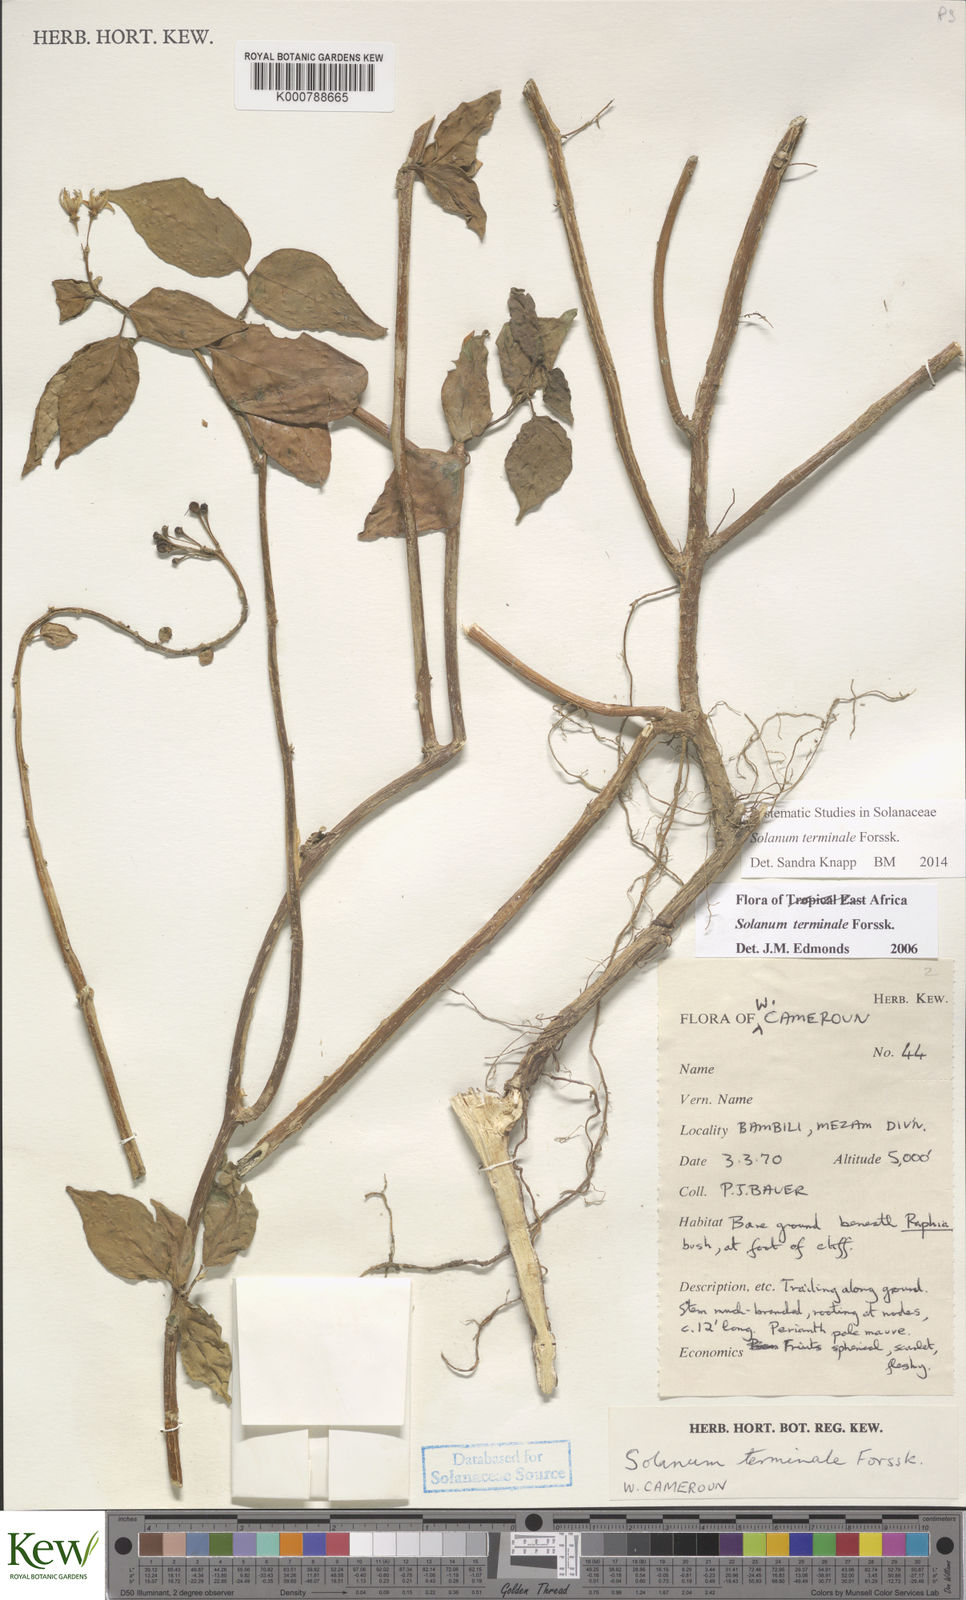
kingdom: Plantae
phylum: Tracheophyta
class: Magnoliopsida
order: Solanales
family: Solanaceae
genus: Solanum
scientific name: Solanum terminale
